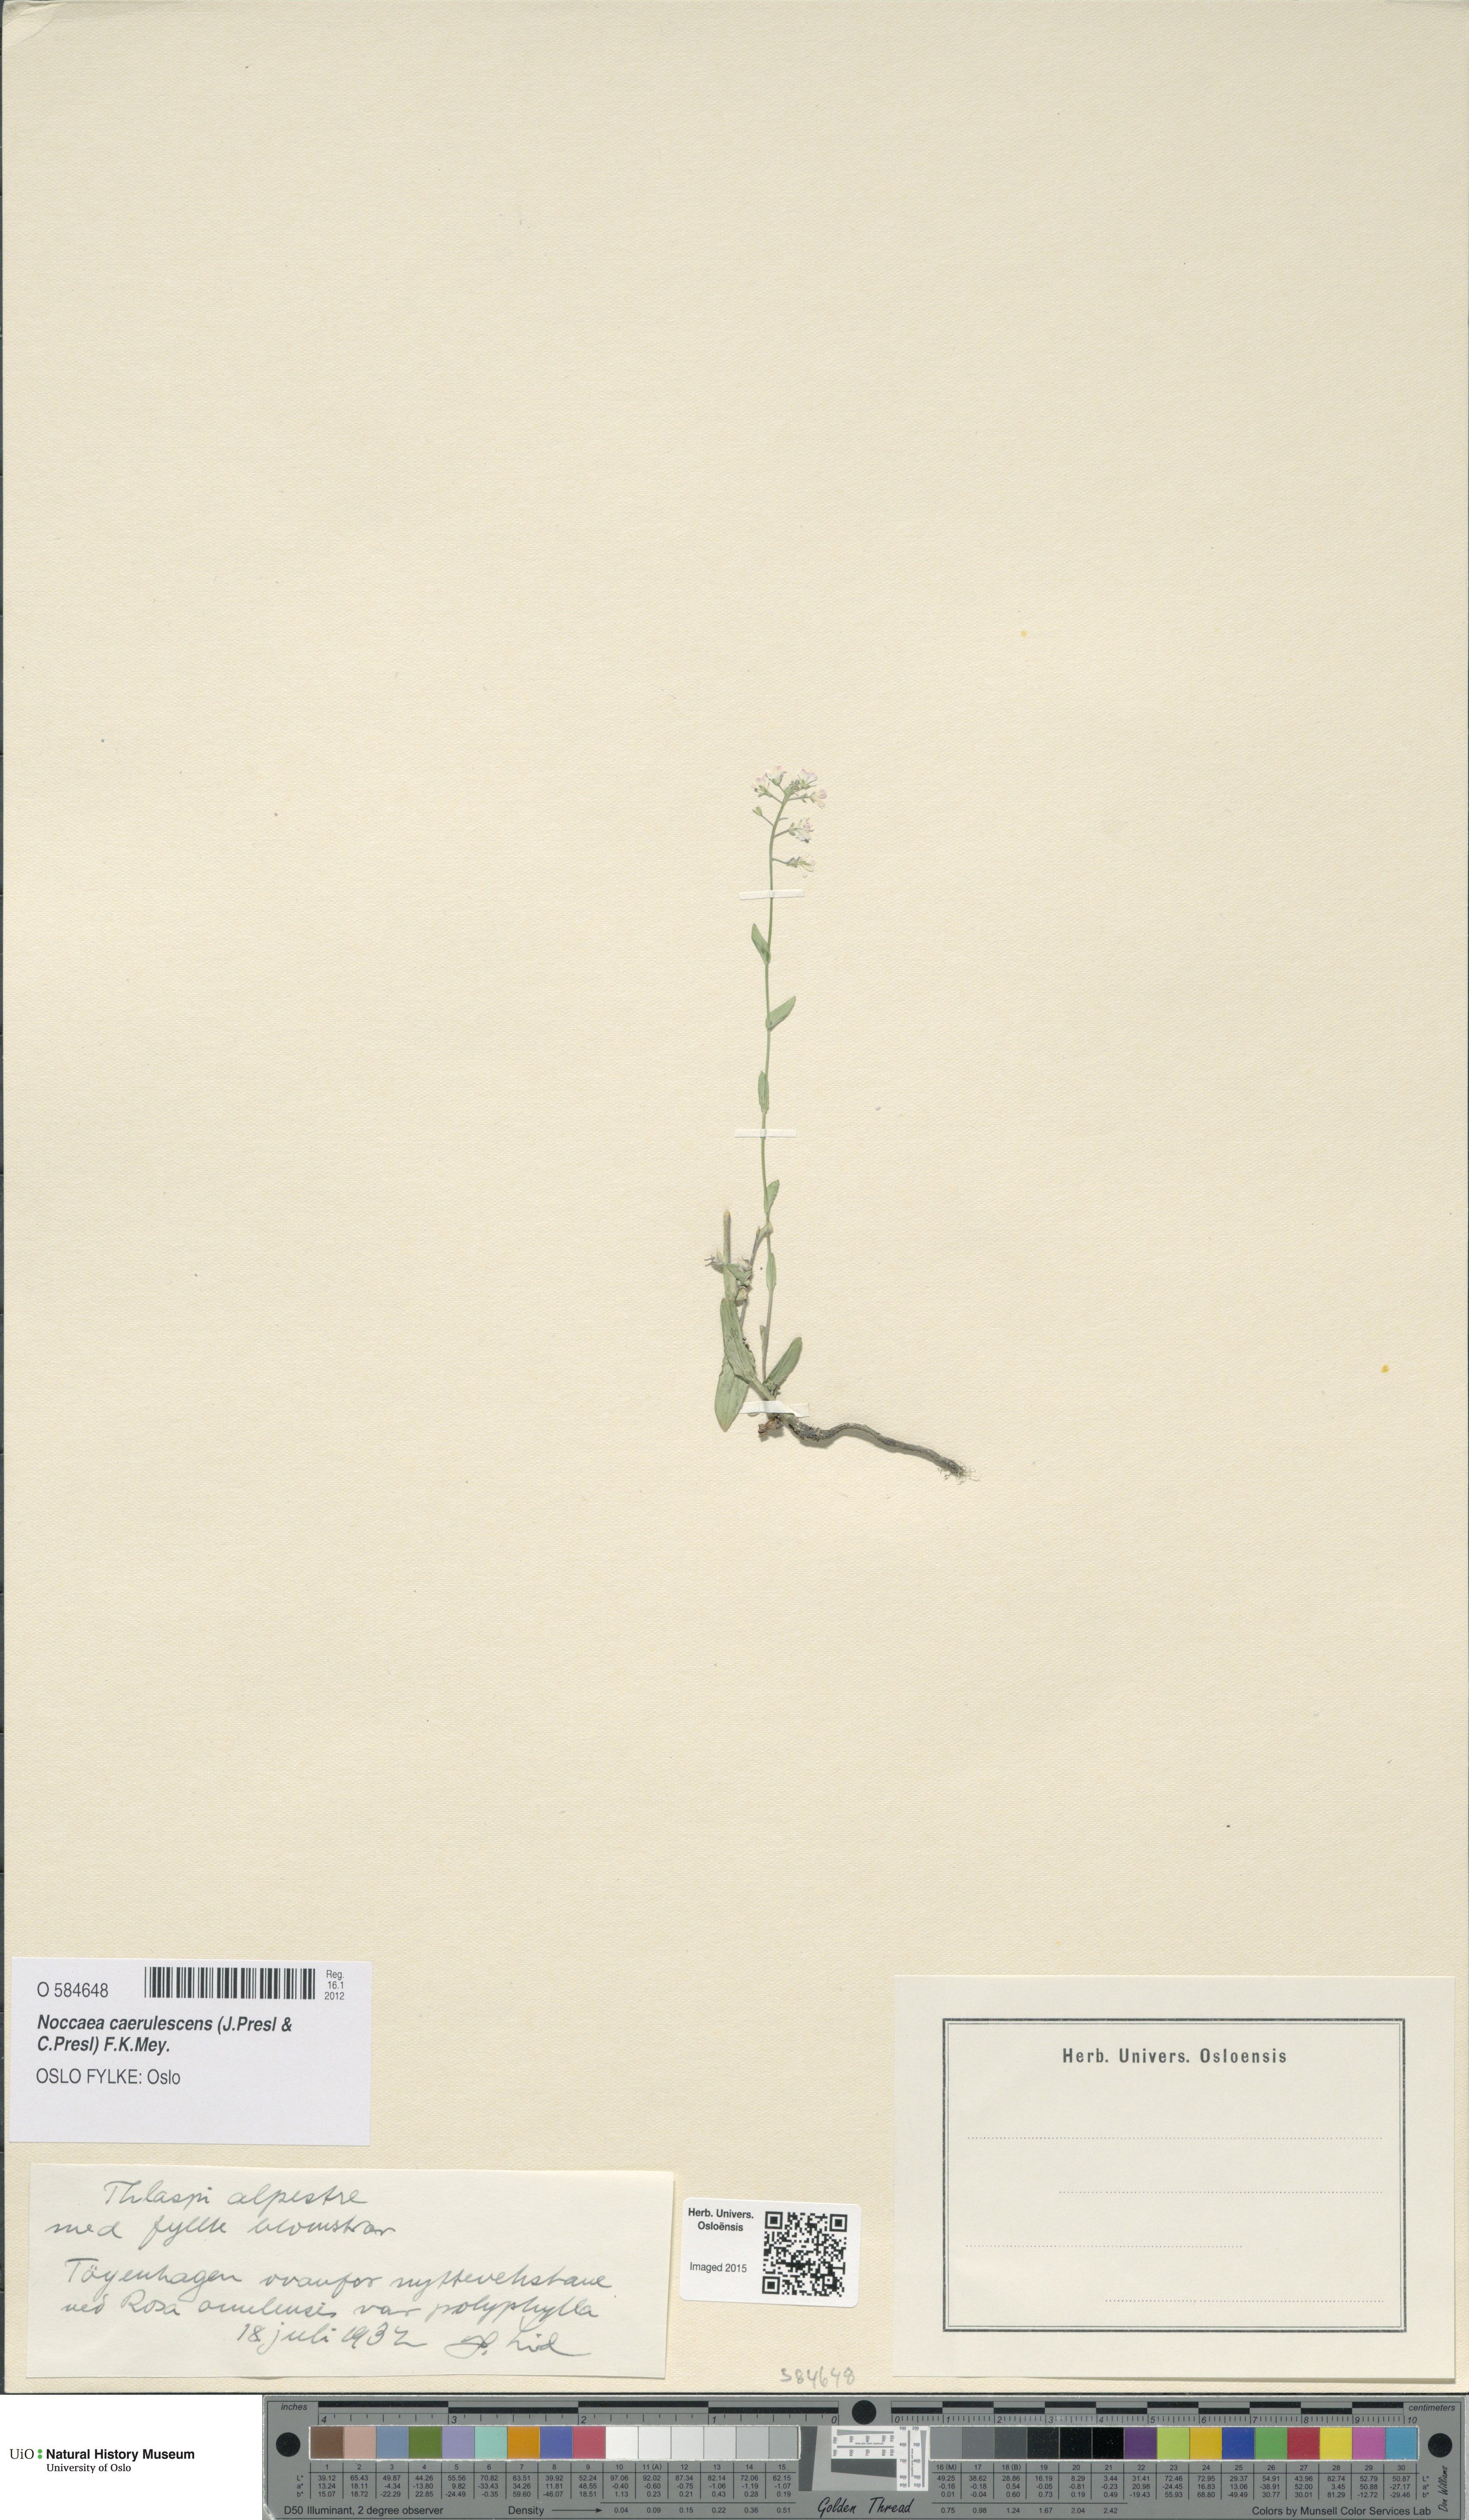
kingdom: Plantae
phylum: Tracheophyta
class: Magnoliopsida
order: Brassicales
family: Brassicaceae
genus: Noccaea
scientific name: Noccaea caerulescens
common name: Alpine pennycress
